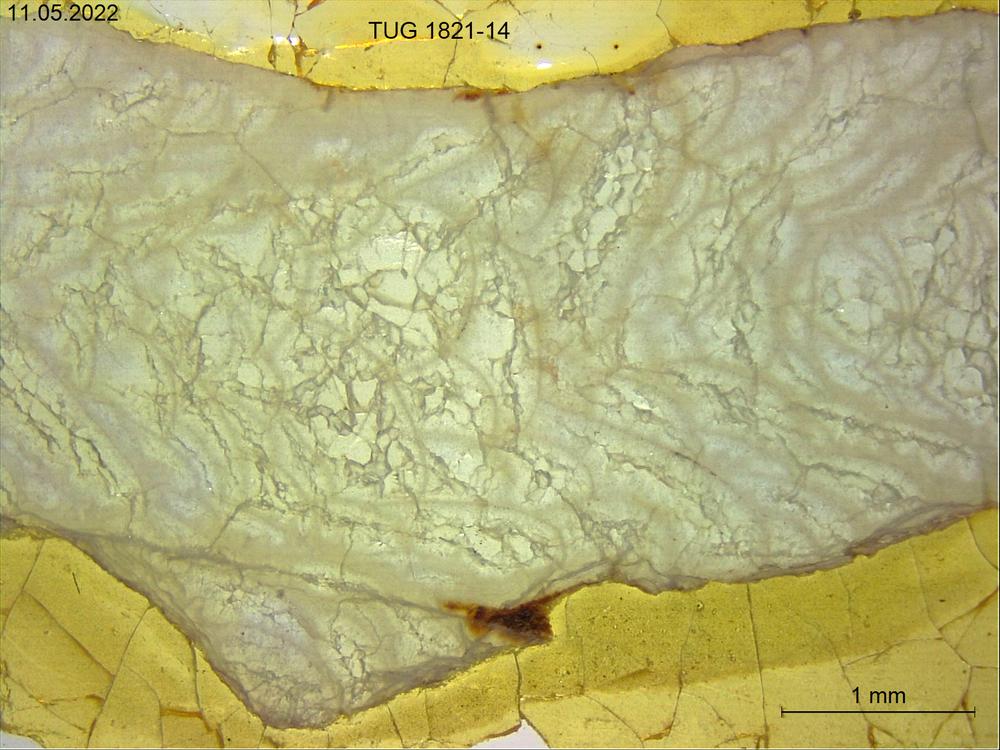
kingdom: Animalia
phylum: Cnidaria
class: Anthozoa
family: Cystiphyllidae
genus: Microplasma
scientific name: Microplasma
